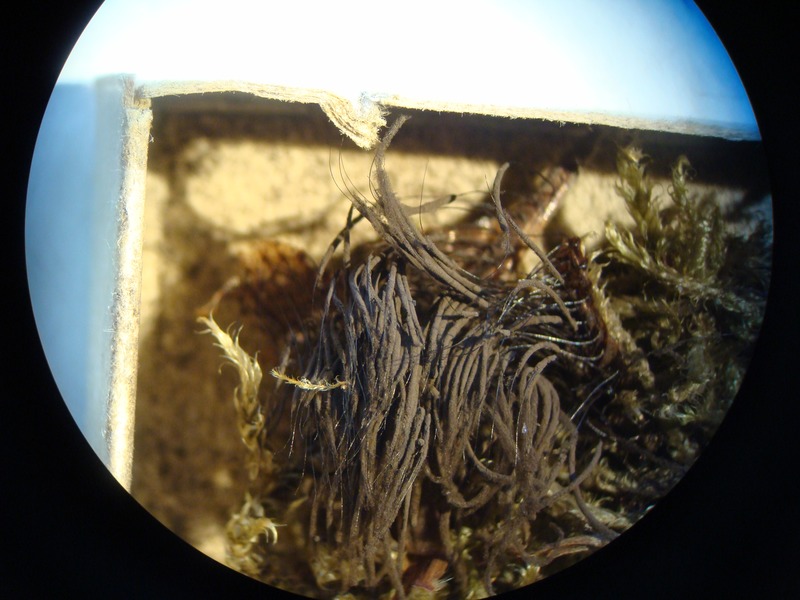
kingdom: Protozoa
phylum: Mycetozoa
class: Myxomycetes
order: Stemonitidales
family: Stemonitidaceae
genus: Stemonitis
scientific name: Stemonitis fusca
